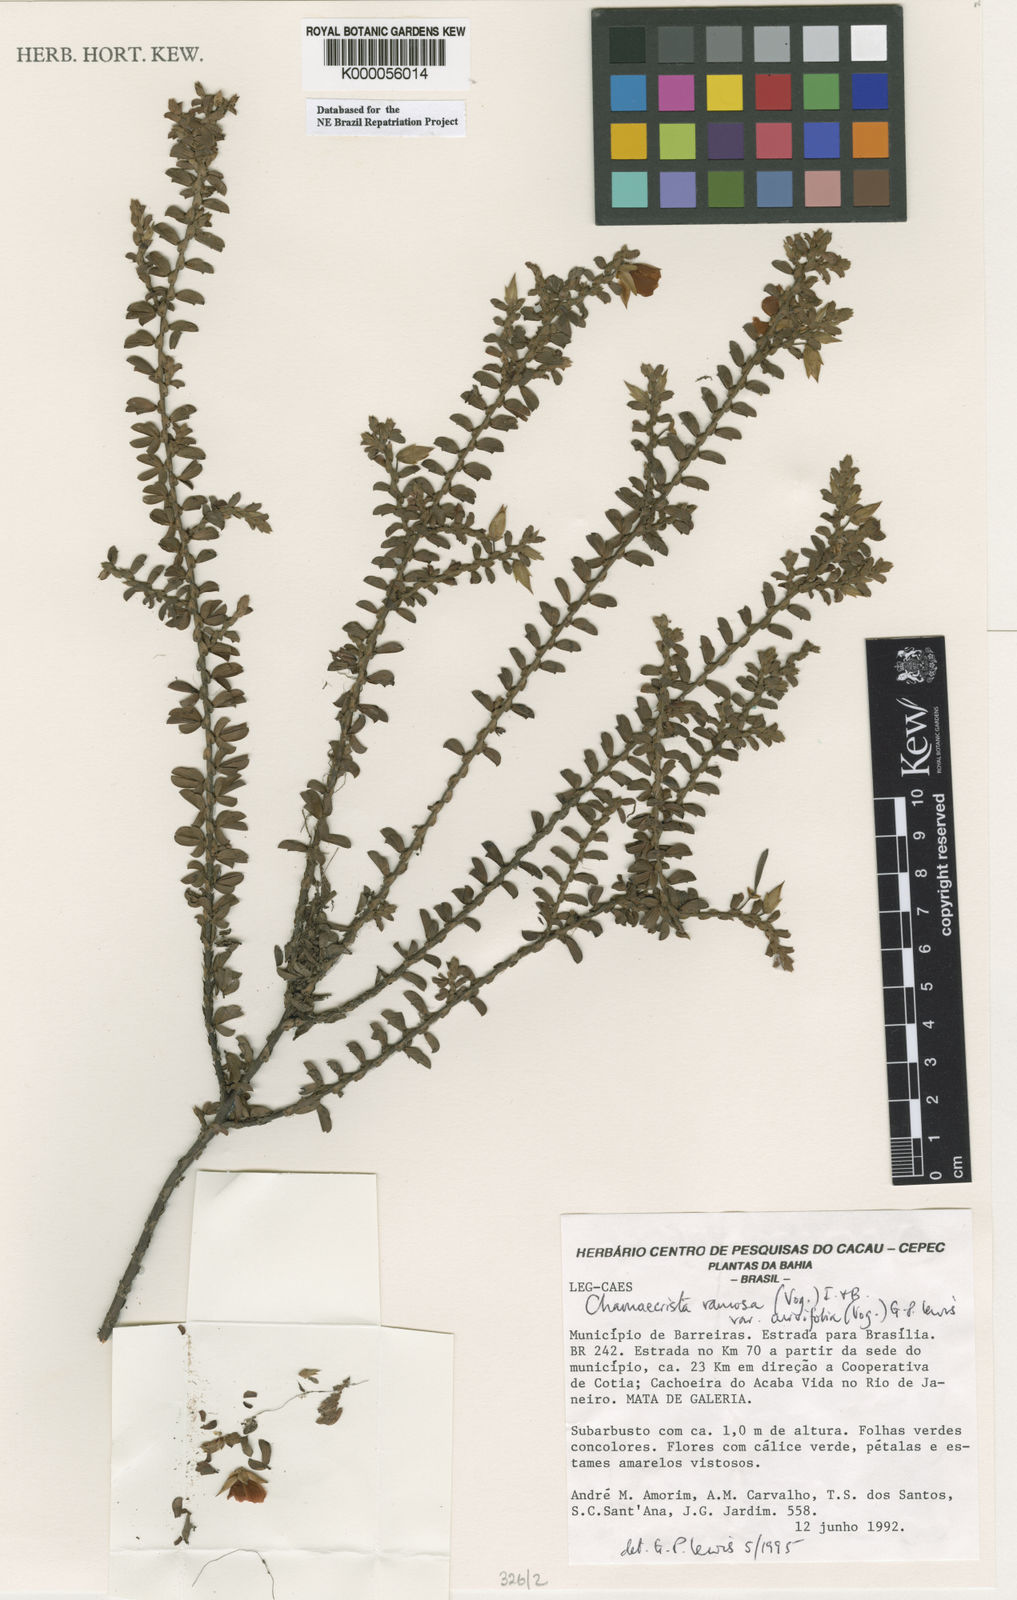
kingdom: Plantae
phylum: Tracheophyta
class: Magnoliopsida
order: Fabales
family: Fabaceae
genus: Chamaecrista
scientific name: Chamaecrista ramosa
